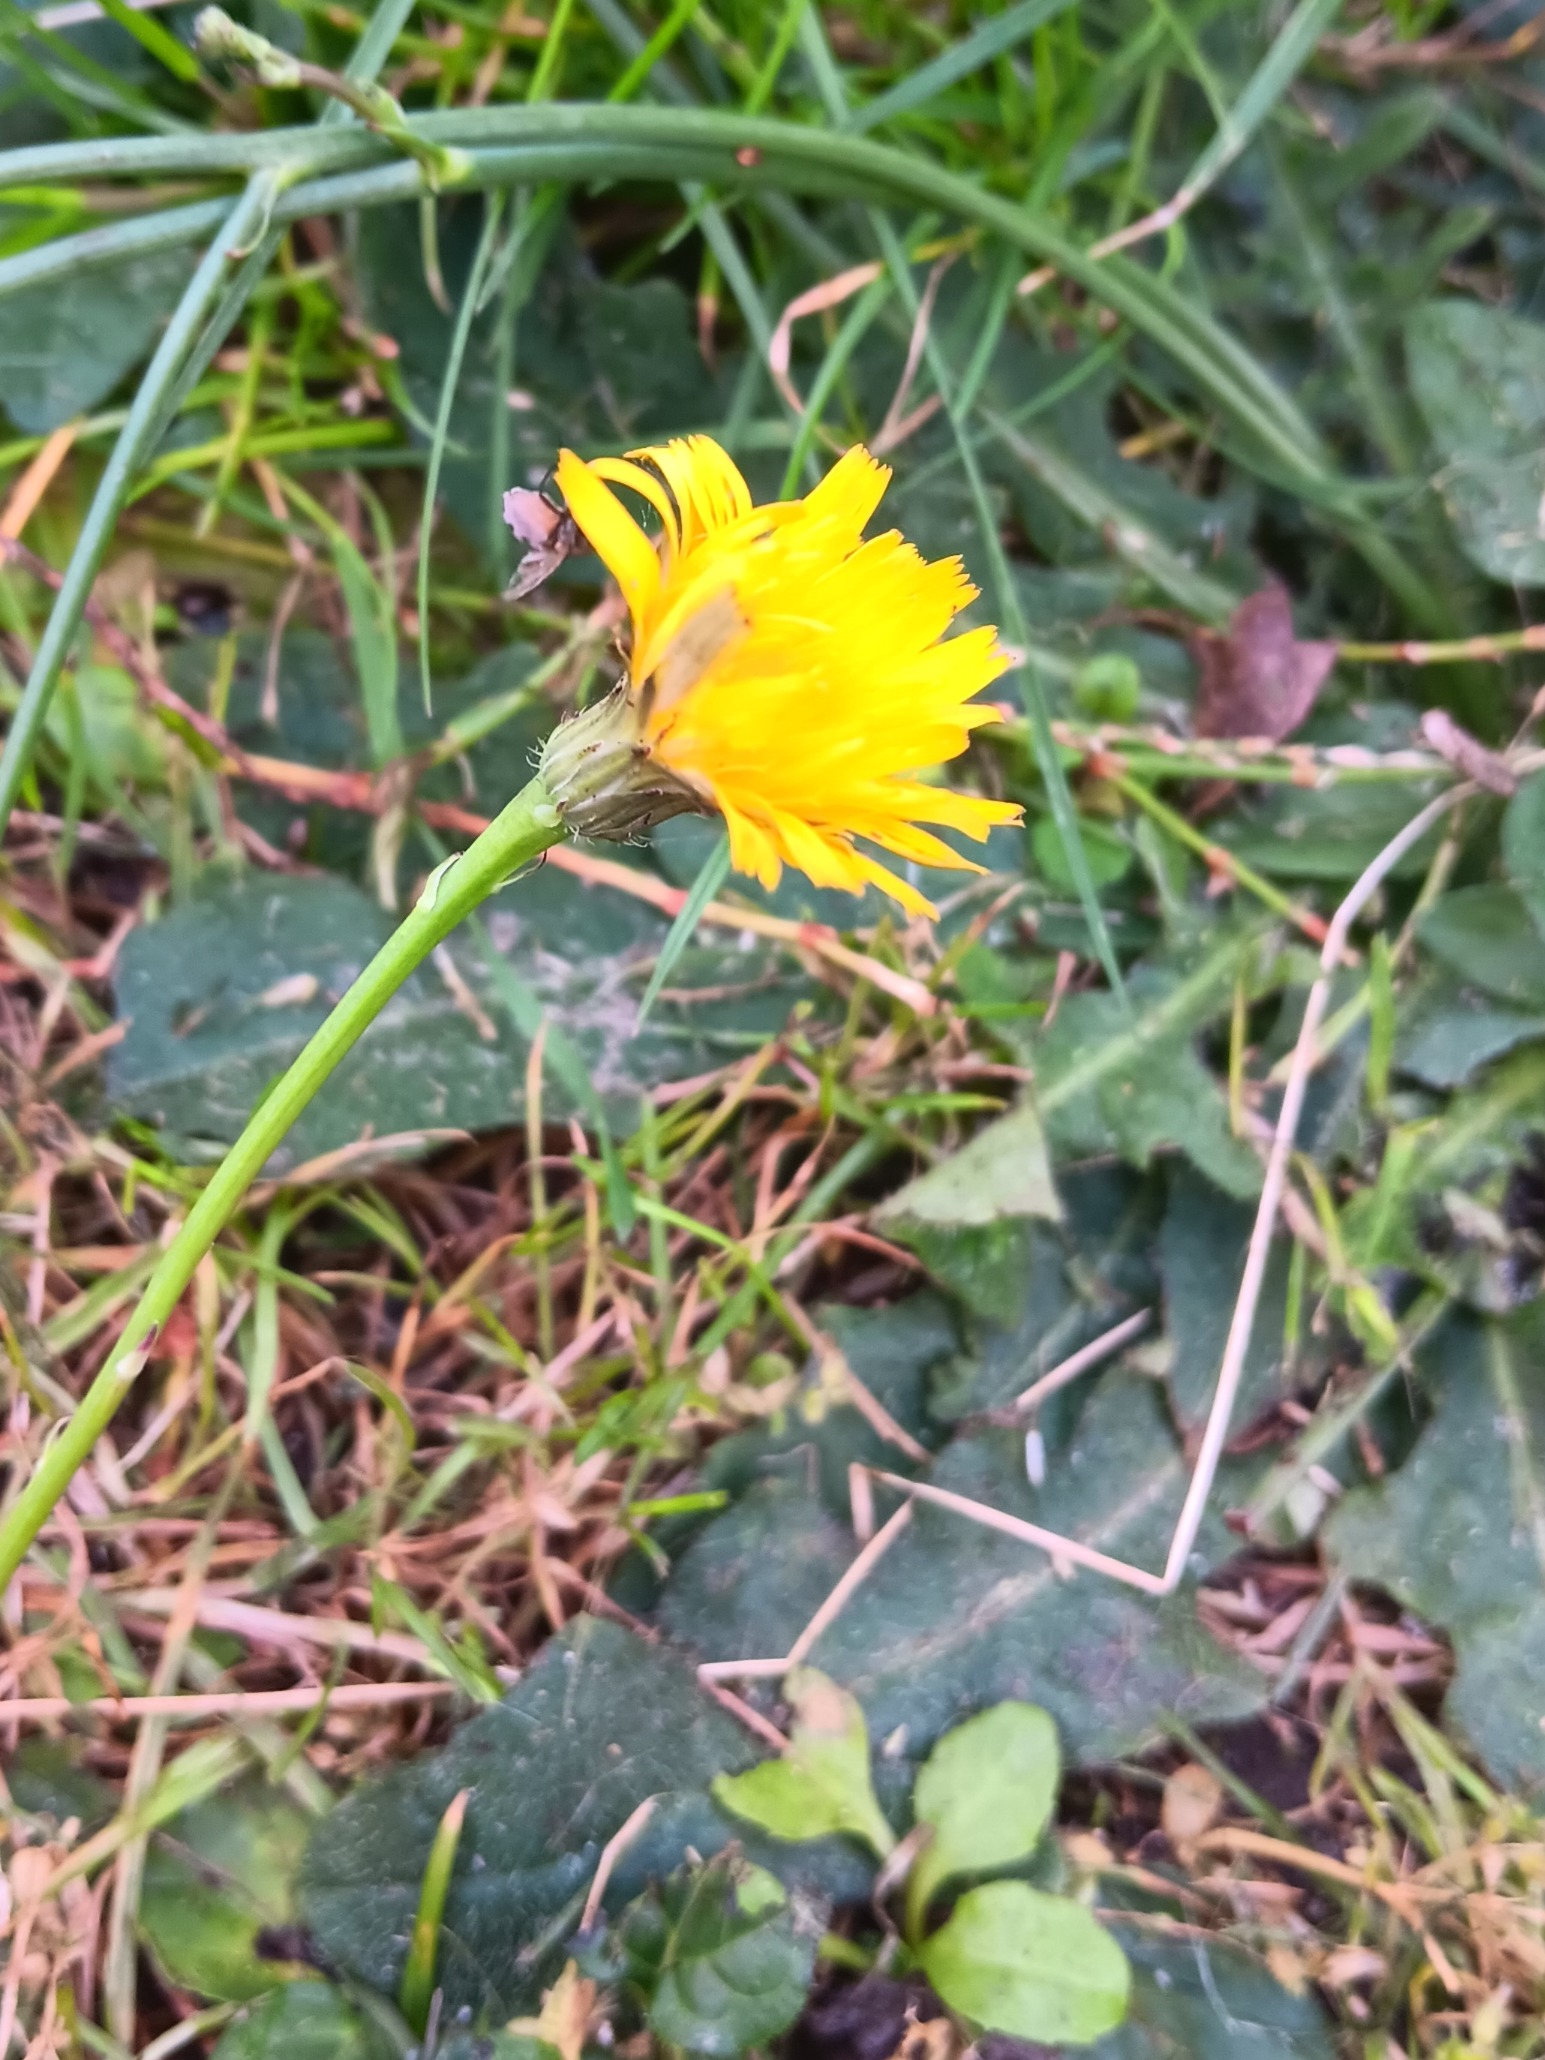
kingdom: Plantae
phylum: Tracheophyta
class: Magnoliopsida
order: Asterales
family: Asteraceae
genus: Hypochaeris
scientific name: Hypochaeris radicata
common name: Almindelig kongepen
